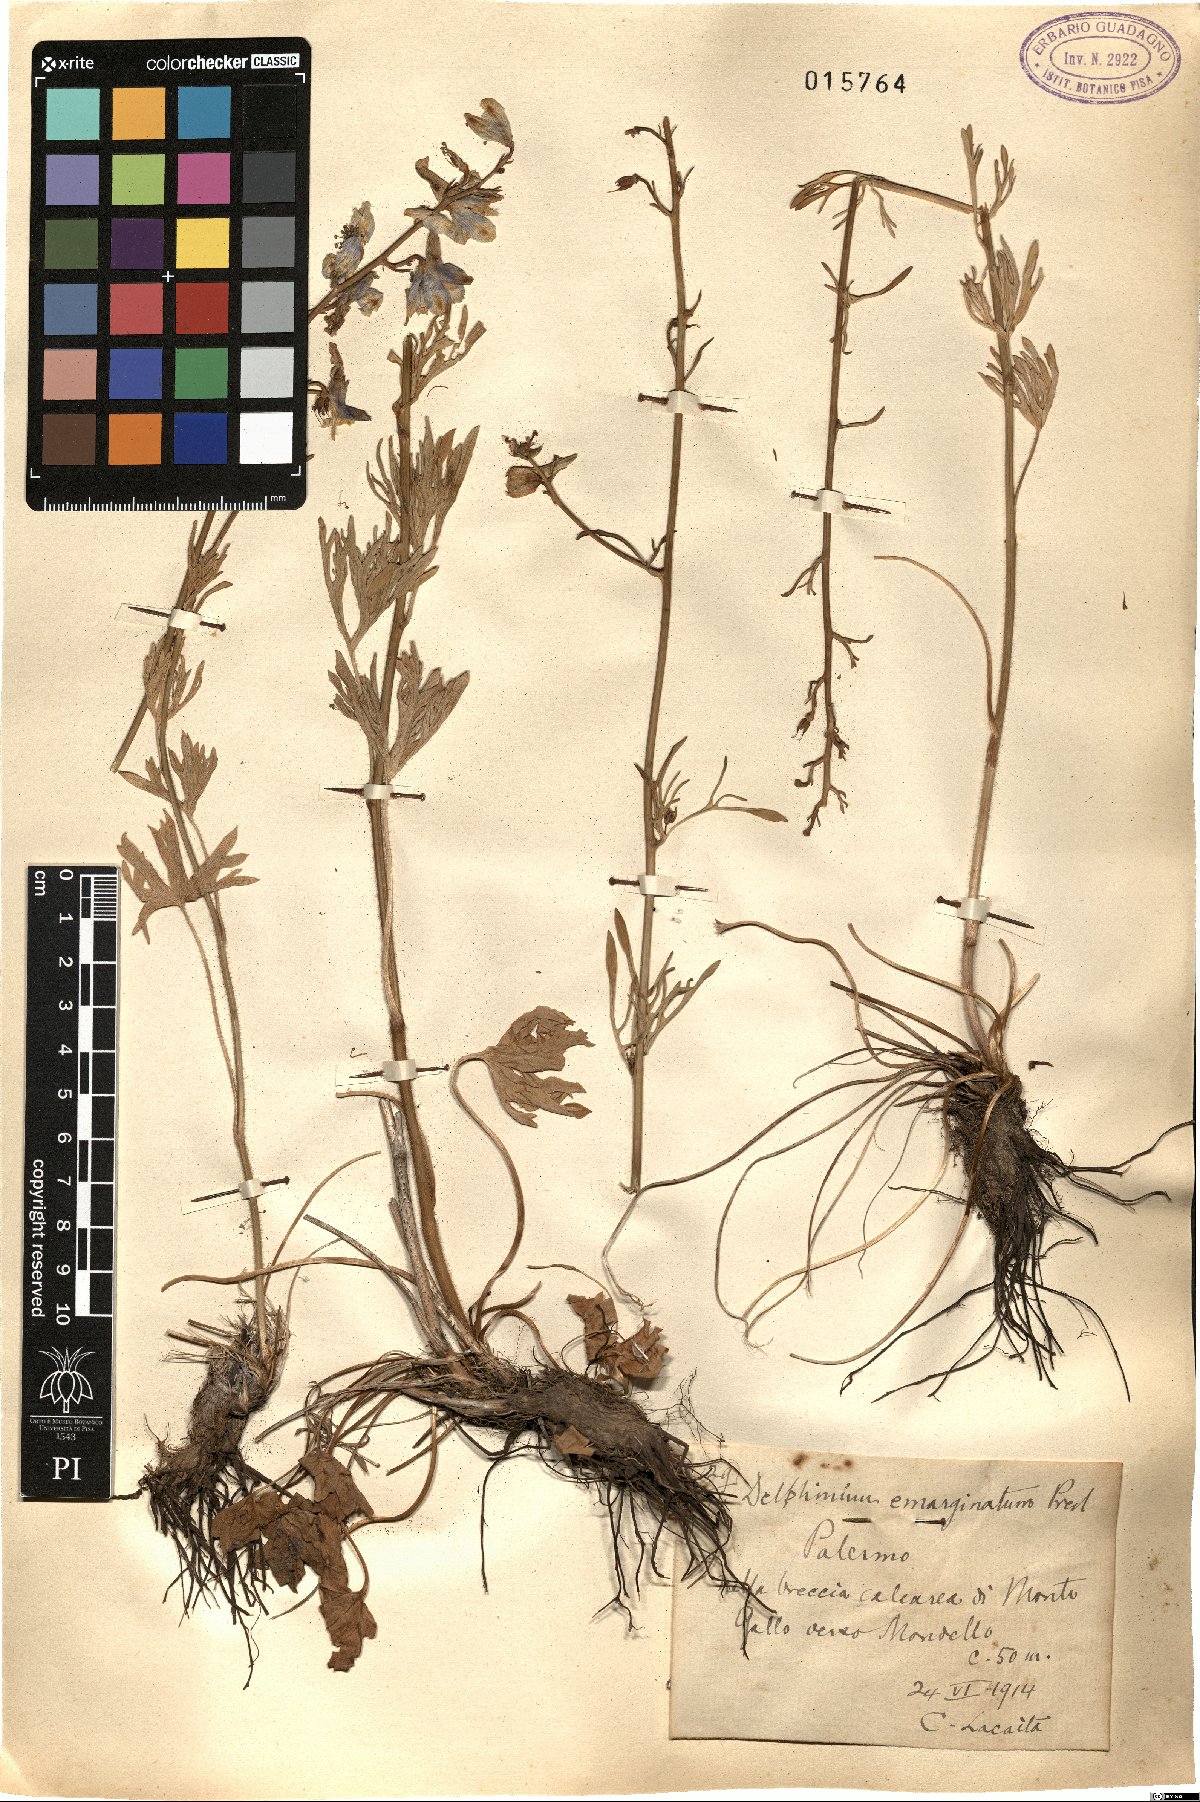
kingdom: Plantae
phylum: Tracheophyta
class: Magnoliopsida
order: Ranunculales
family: Ranunculaceae
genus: Delphinium
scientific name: Delphinium emarginatum
